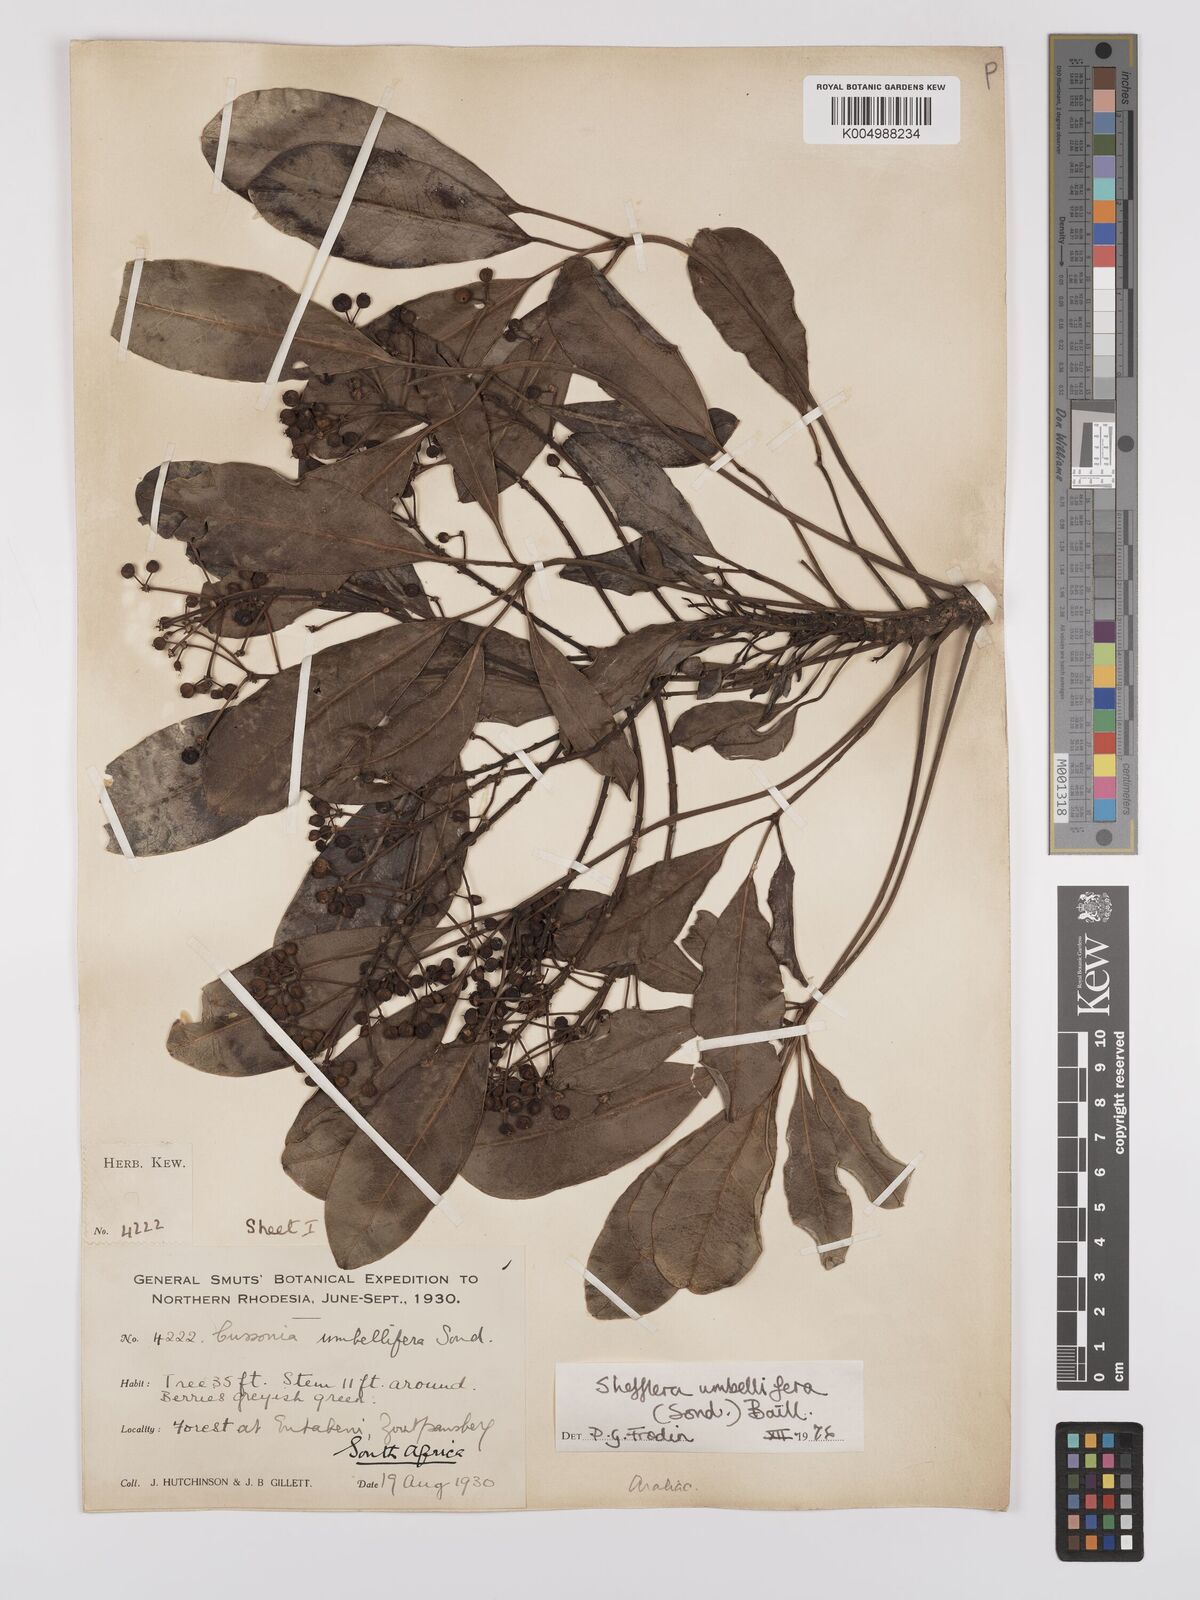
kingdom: Plantae
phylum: Tracheophyta
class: Magnoliopsida
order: Apiales
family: Araliaceae
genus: Neocussonia
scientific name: Neocussonia umbellifera
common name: False cabbage tree
